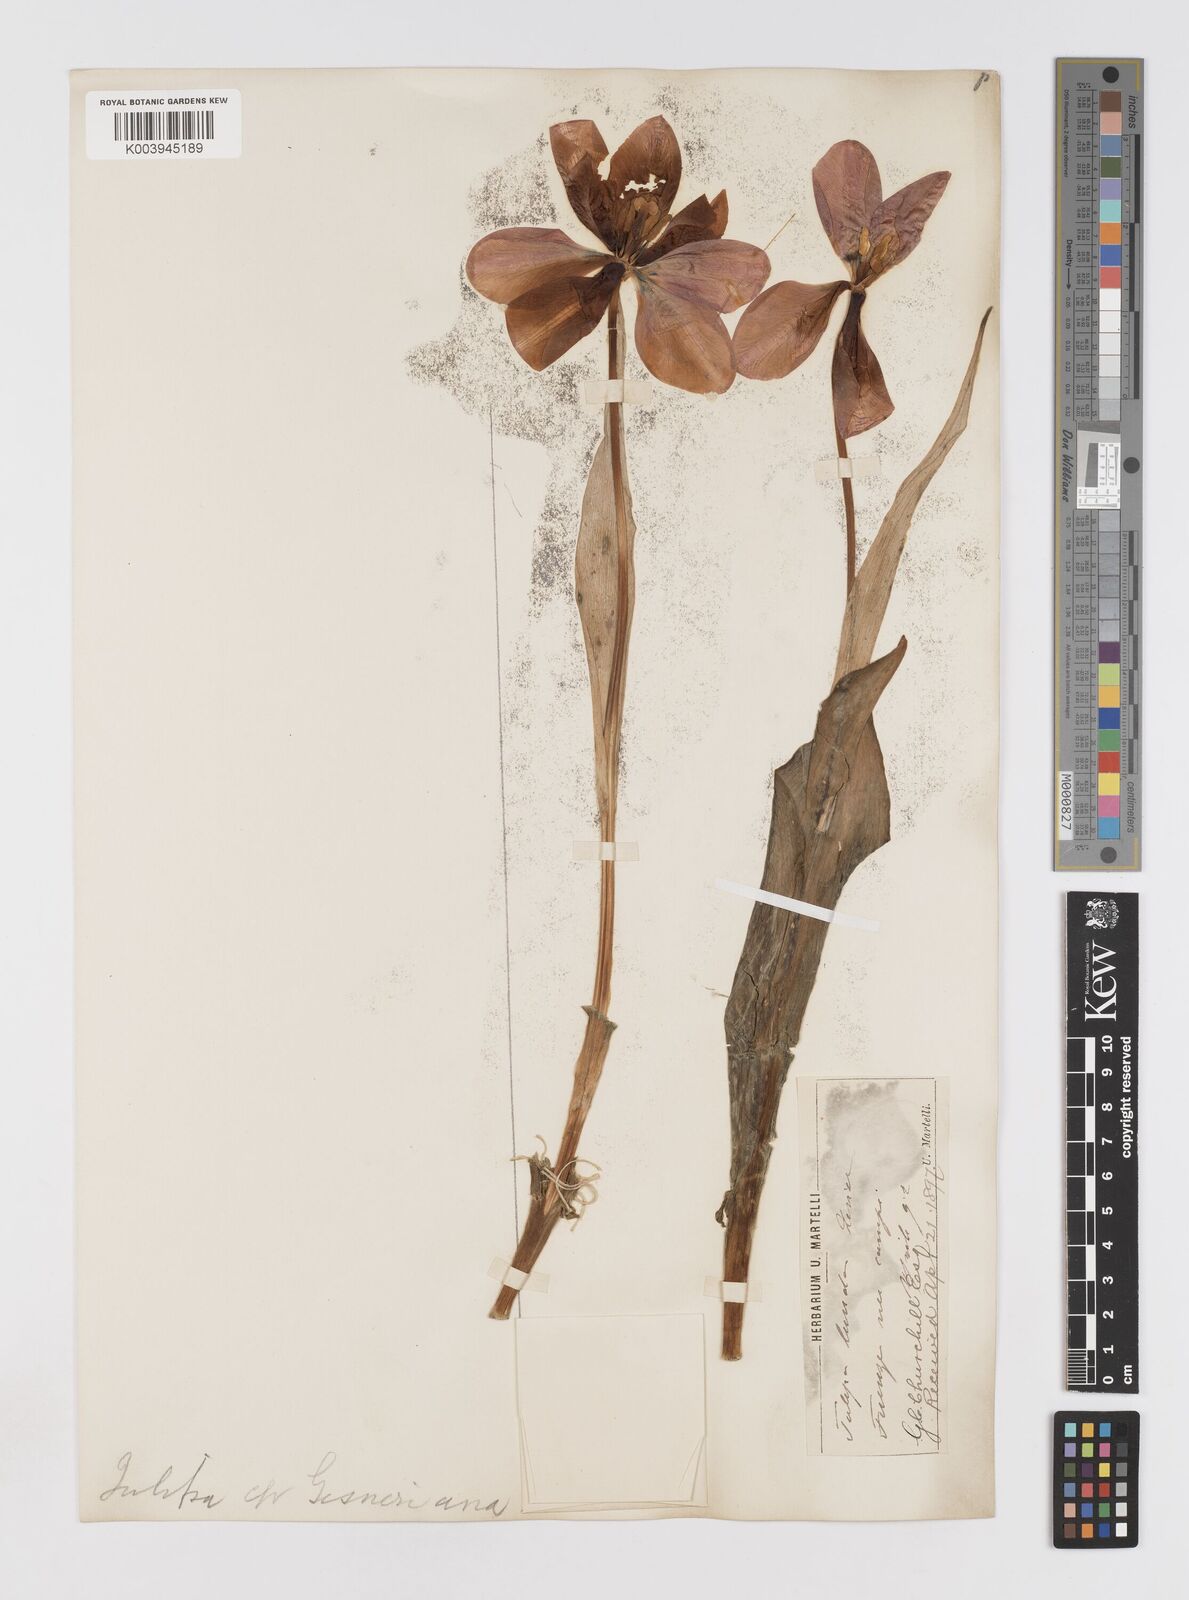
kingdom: Plantae
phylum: Tracheophyta
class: Liliopsida
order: Liliales
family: Liliaceae
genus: Tulipa
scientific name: Tulipa gesneriana
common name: Garden tulip
